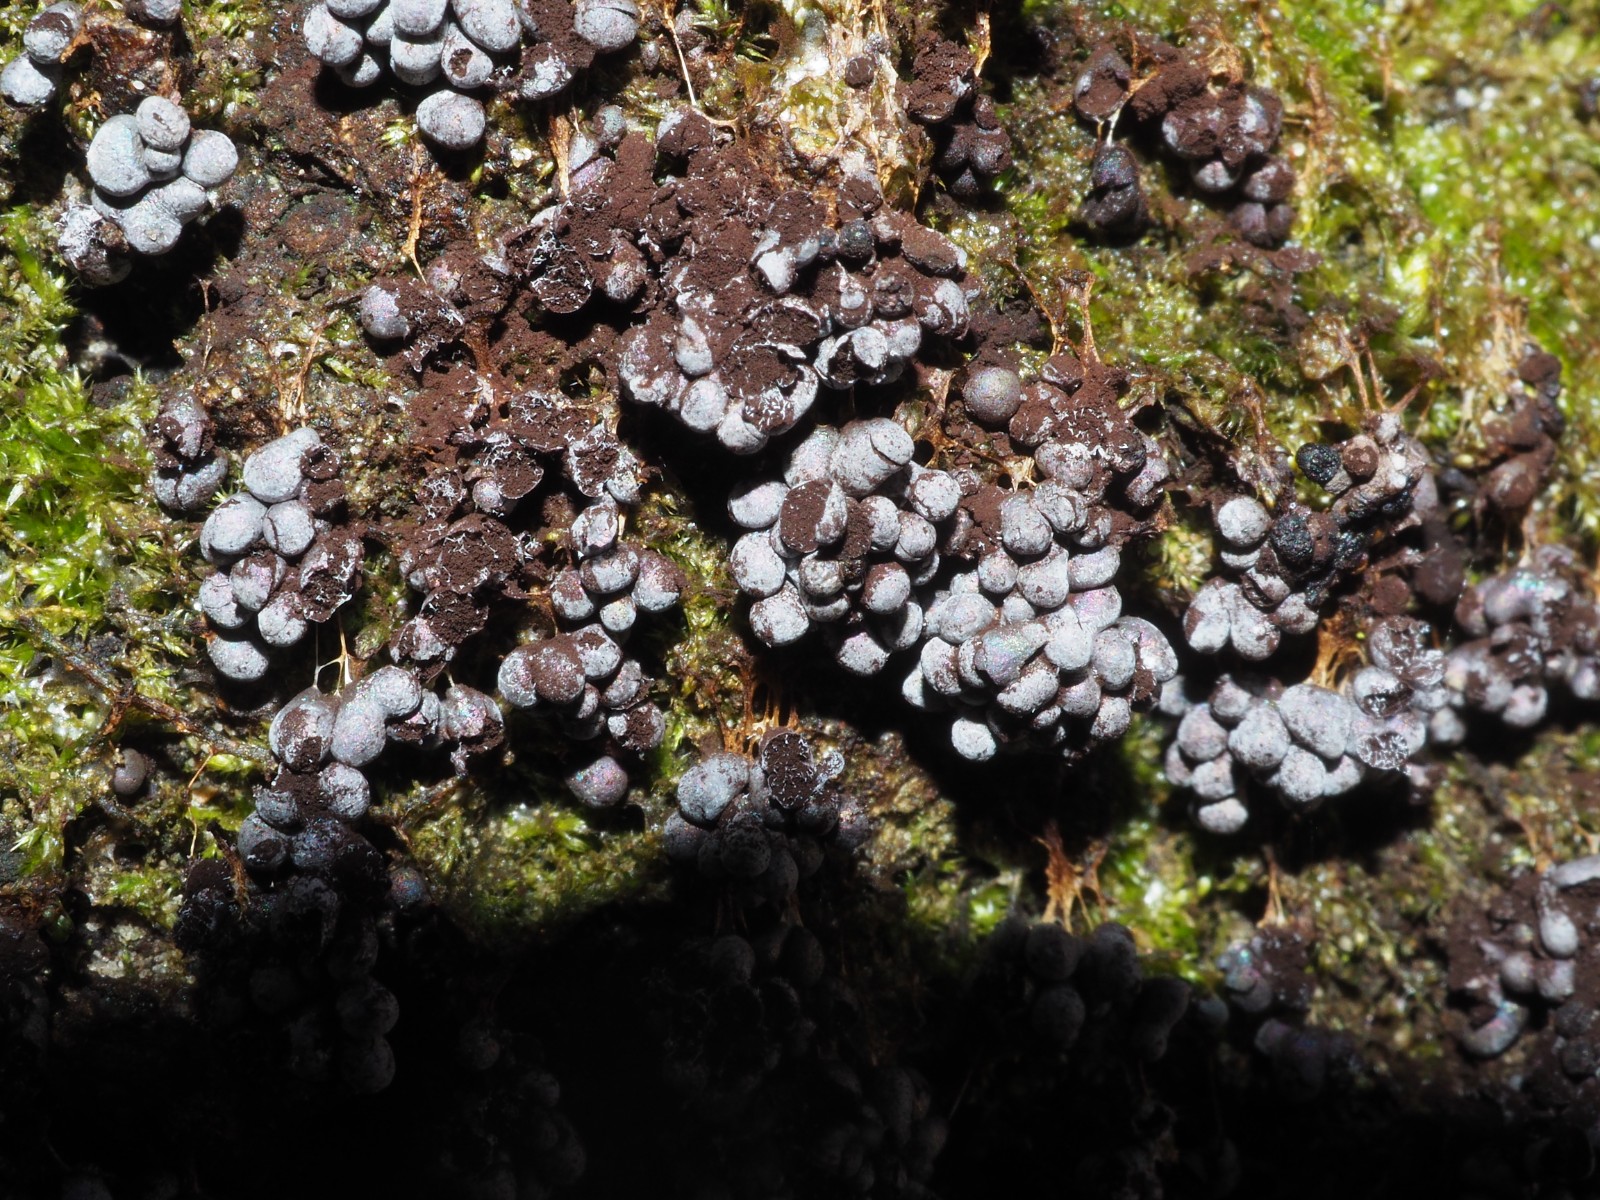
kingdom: Protozoa
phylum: Mycetozoa
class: Myxomycetes
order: Physarales
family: Physaraceae
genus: Badhamia
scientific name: Badhamia utricularis
